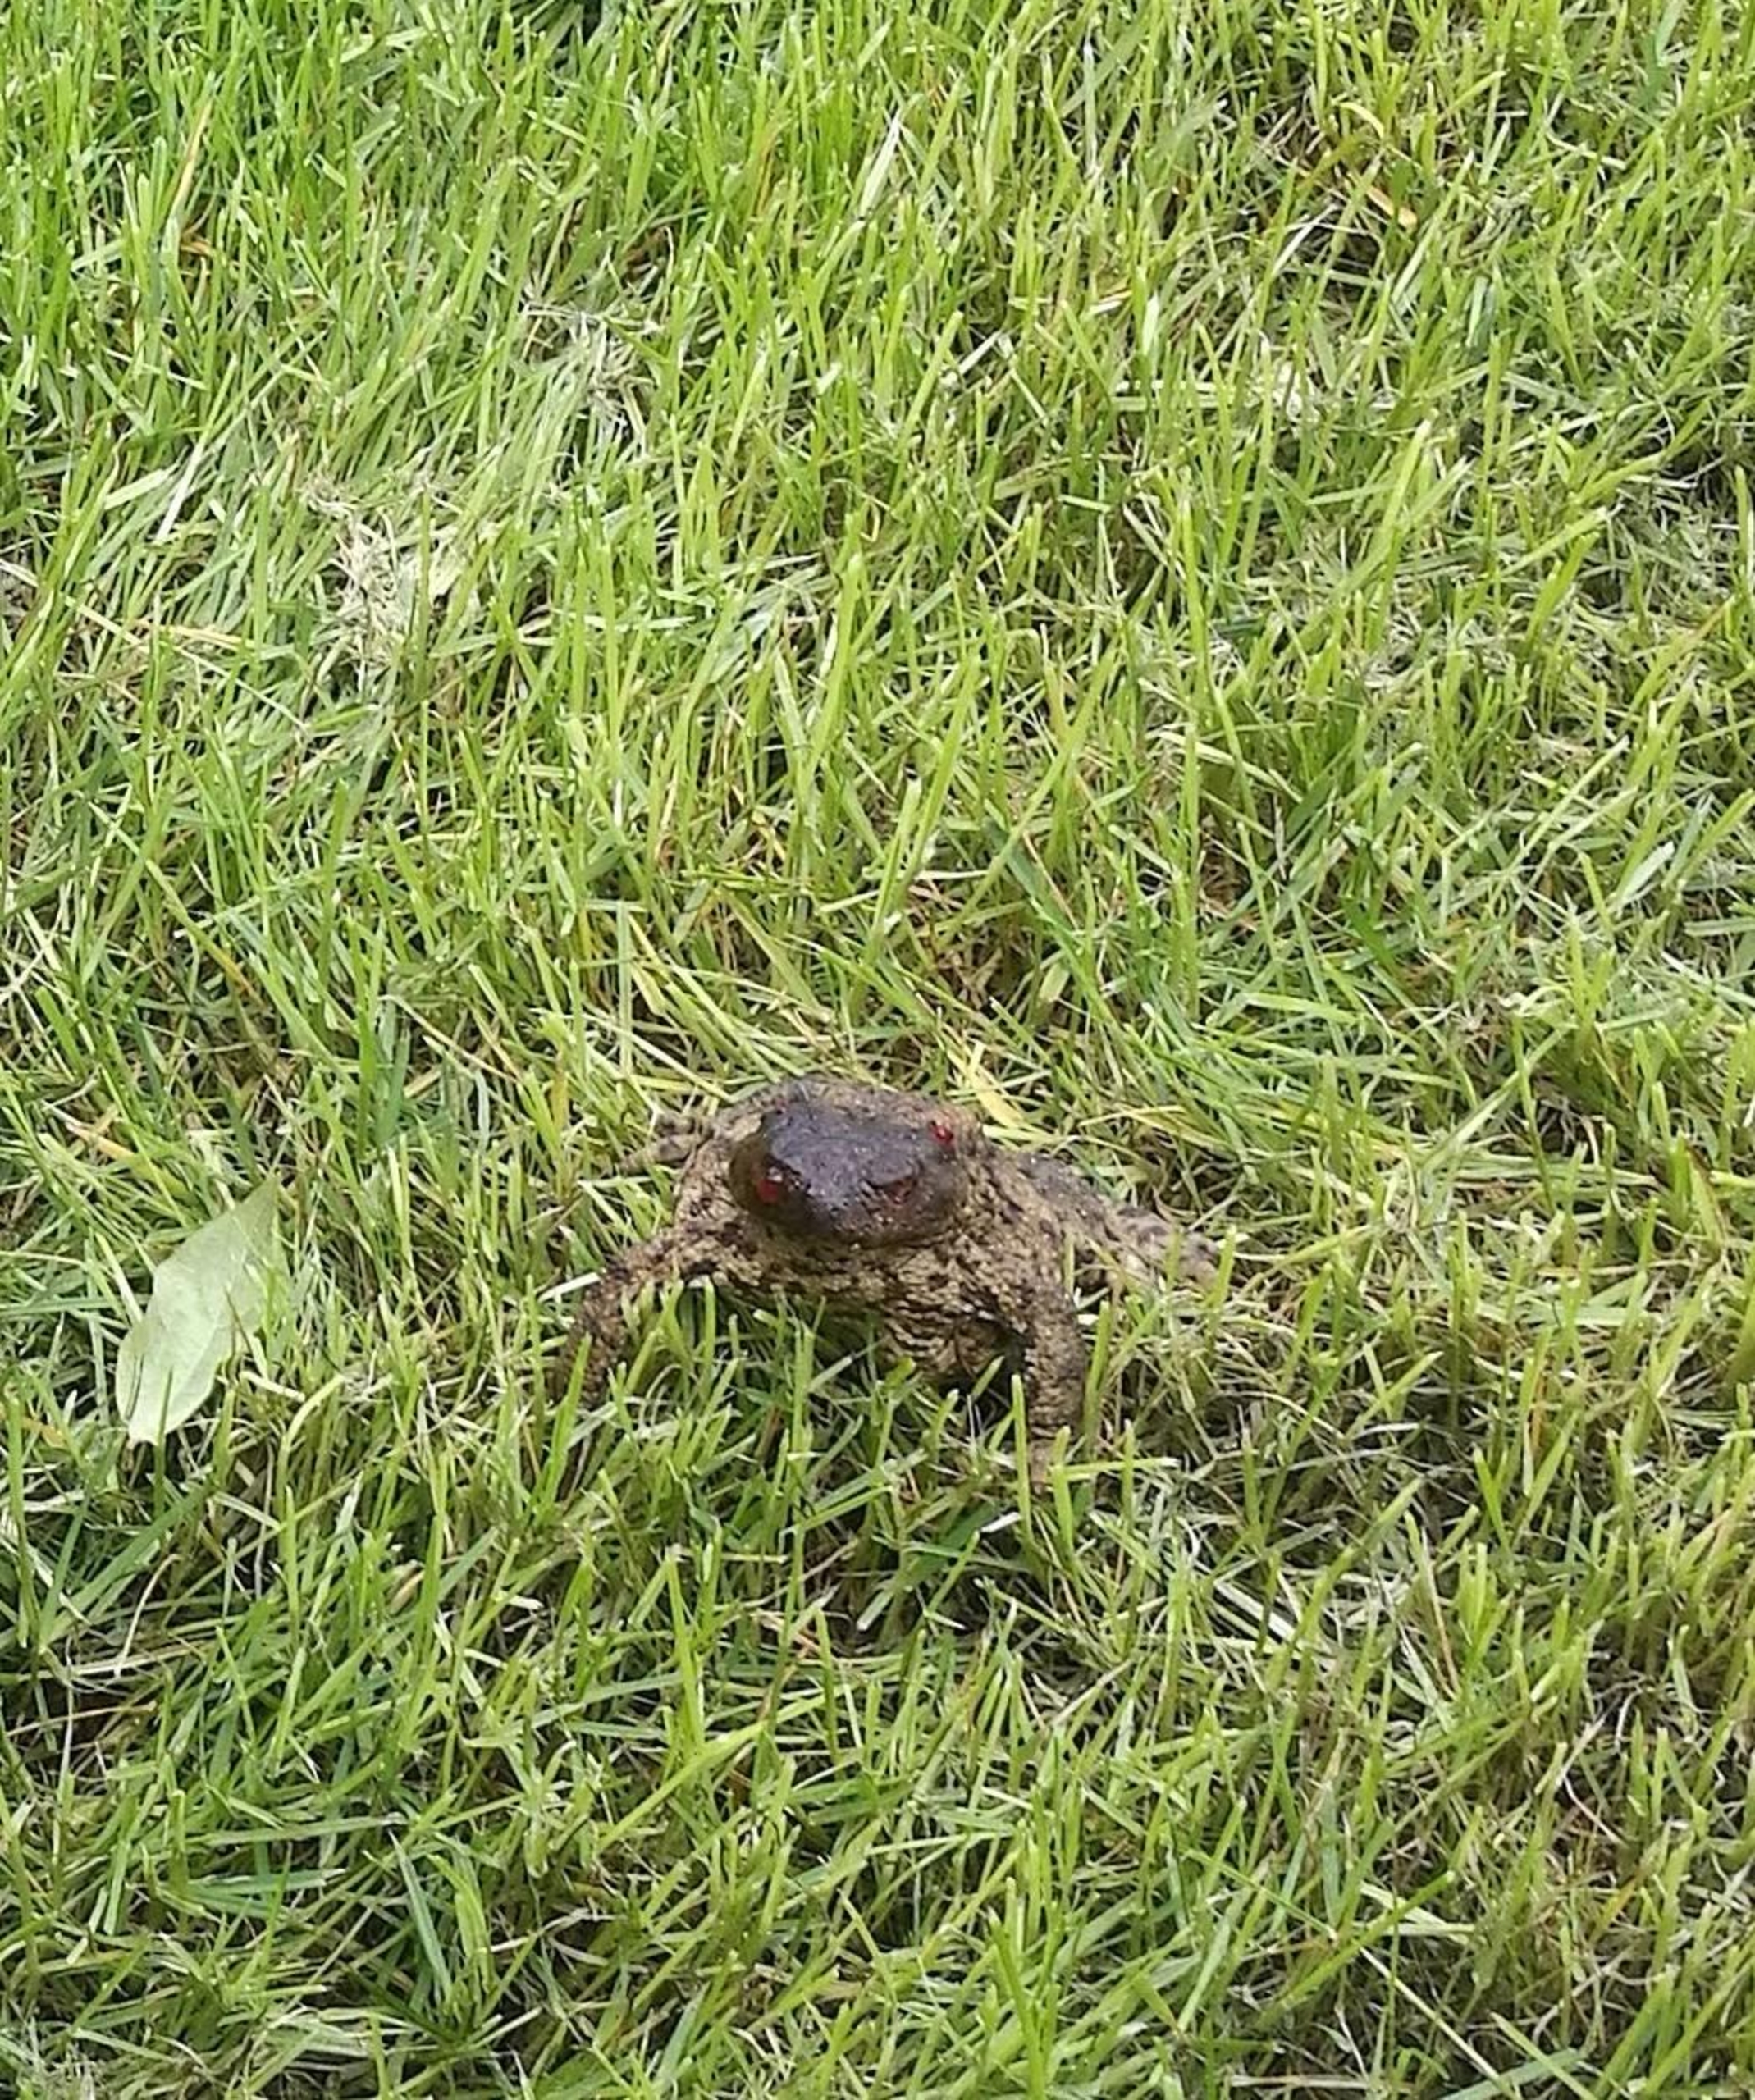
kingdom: Animalia
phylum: Chordata
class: Amphibia
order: Anura
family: Bufonidae
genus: Bufo
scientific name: Bufo bufo
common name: Skrubtudse
